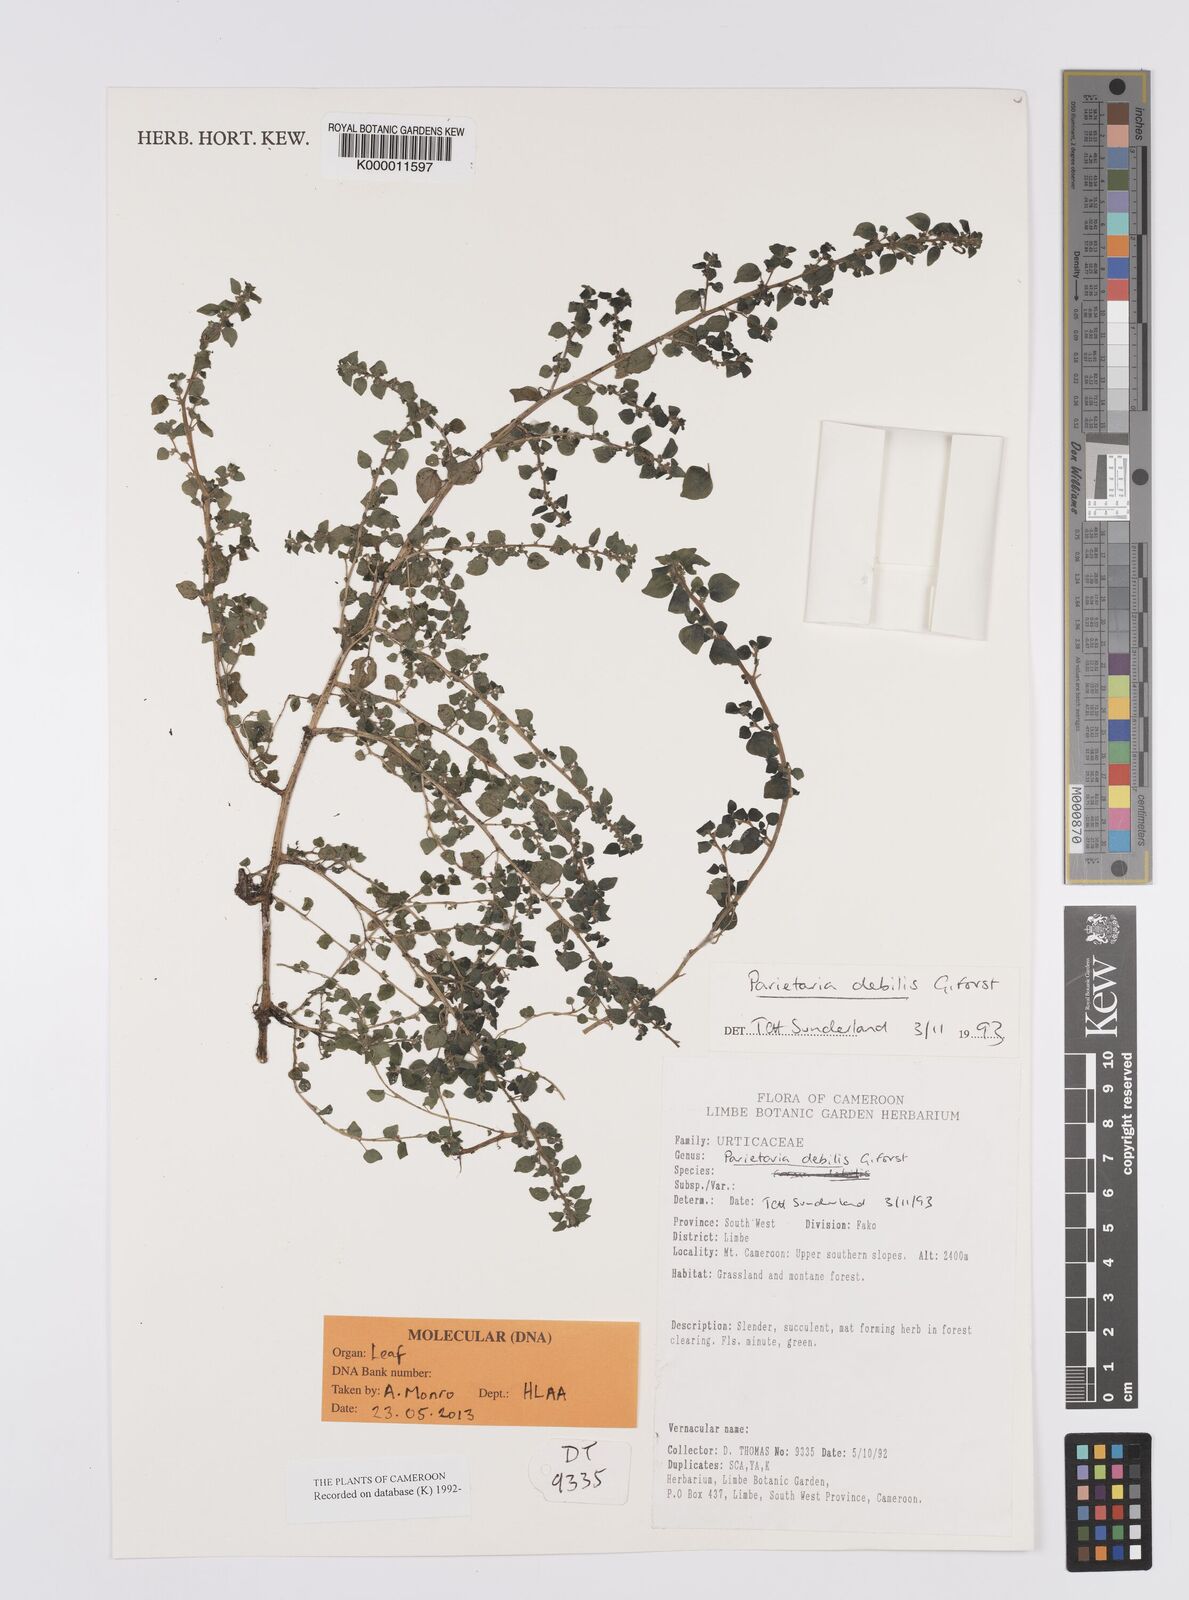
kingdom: Plantae
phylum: Tracheophyta
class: Magnoliopsida
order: Rosales
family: Urticaceae
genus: Parietaria
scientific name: Parietaria debilis
